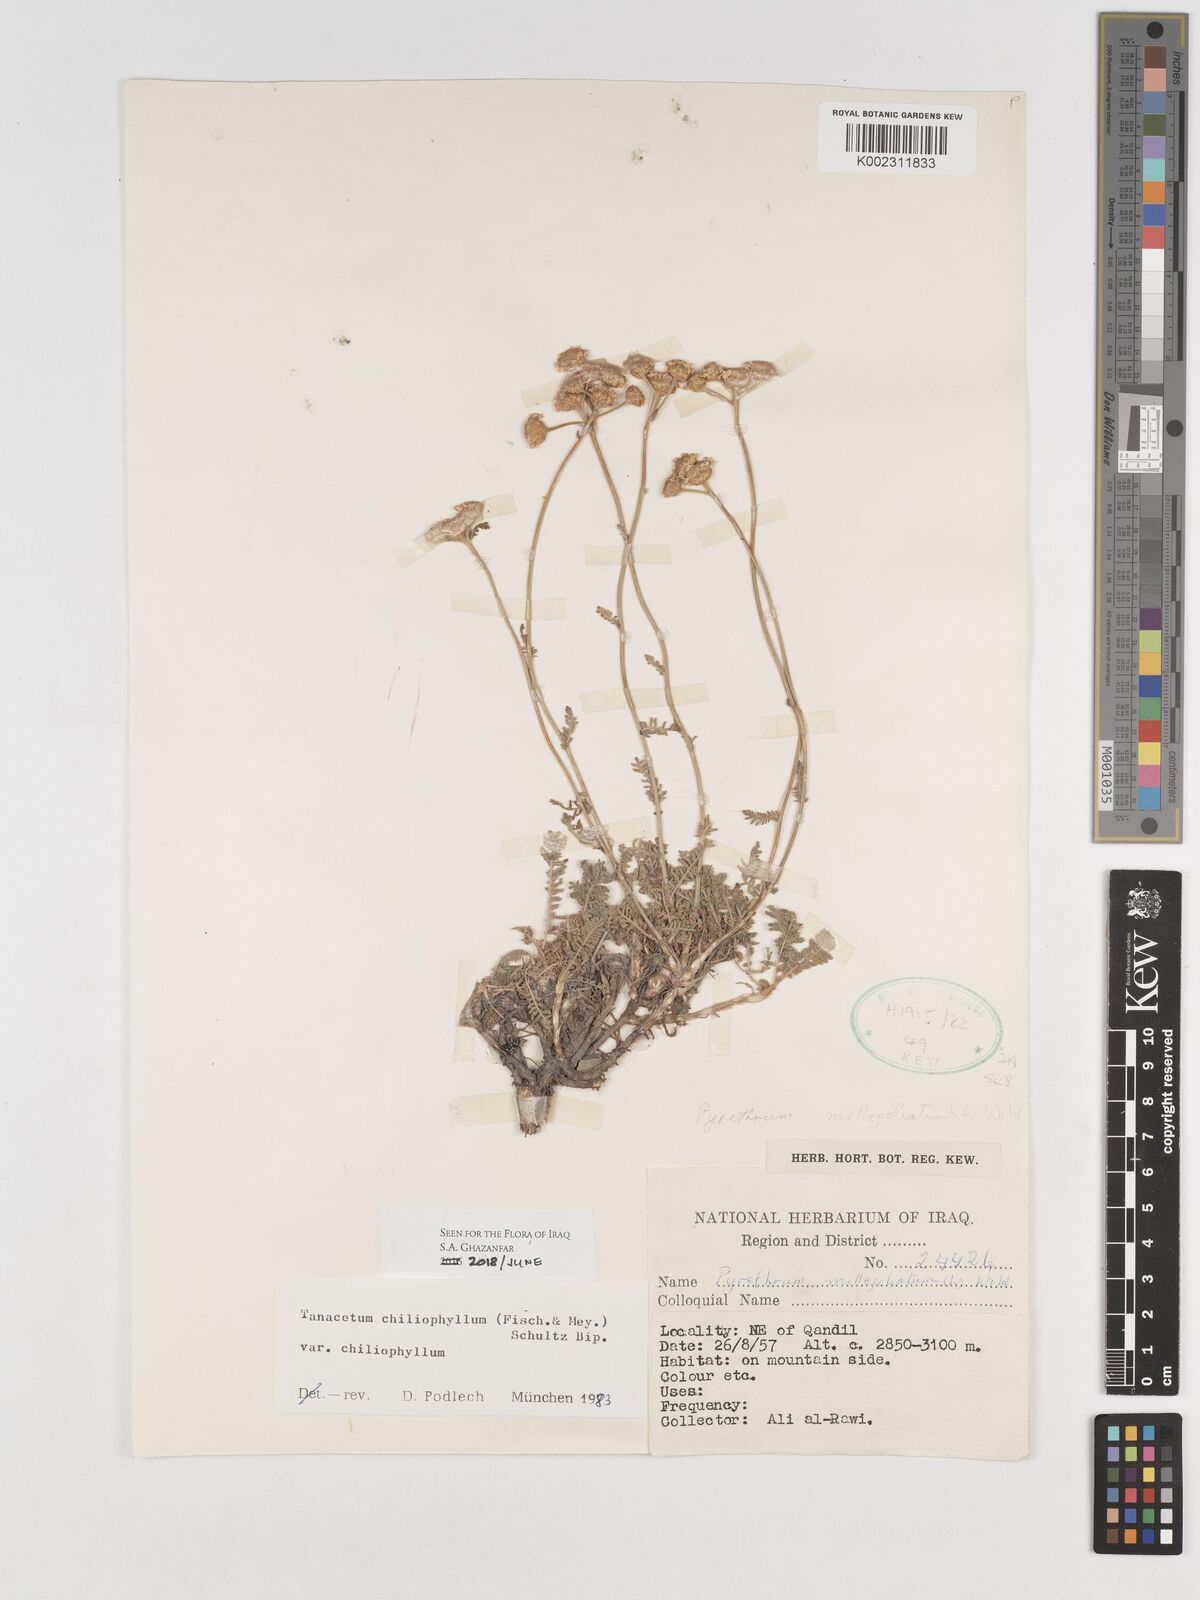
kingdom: Plantae
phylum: Tracheophyta
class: Magnoliopsida
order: Asterales
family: Asteraceae
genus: Tanacetum
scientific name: Tanacetum aureum
